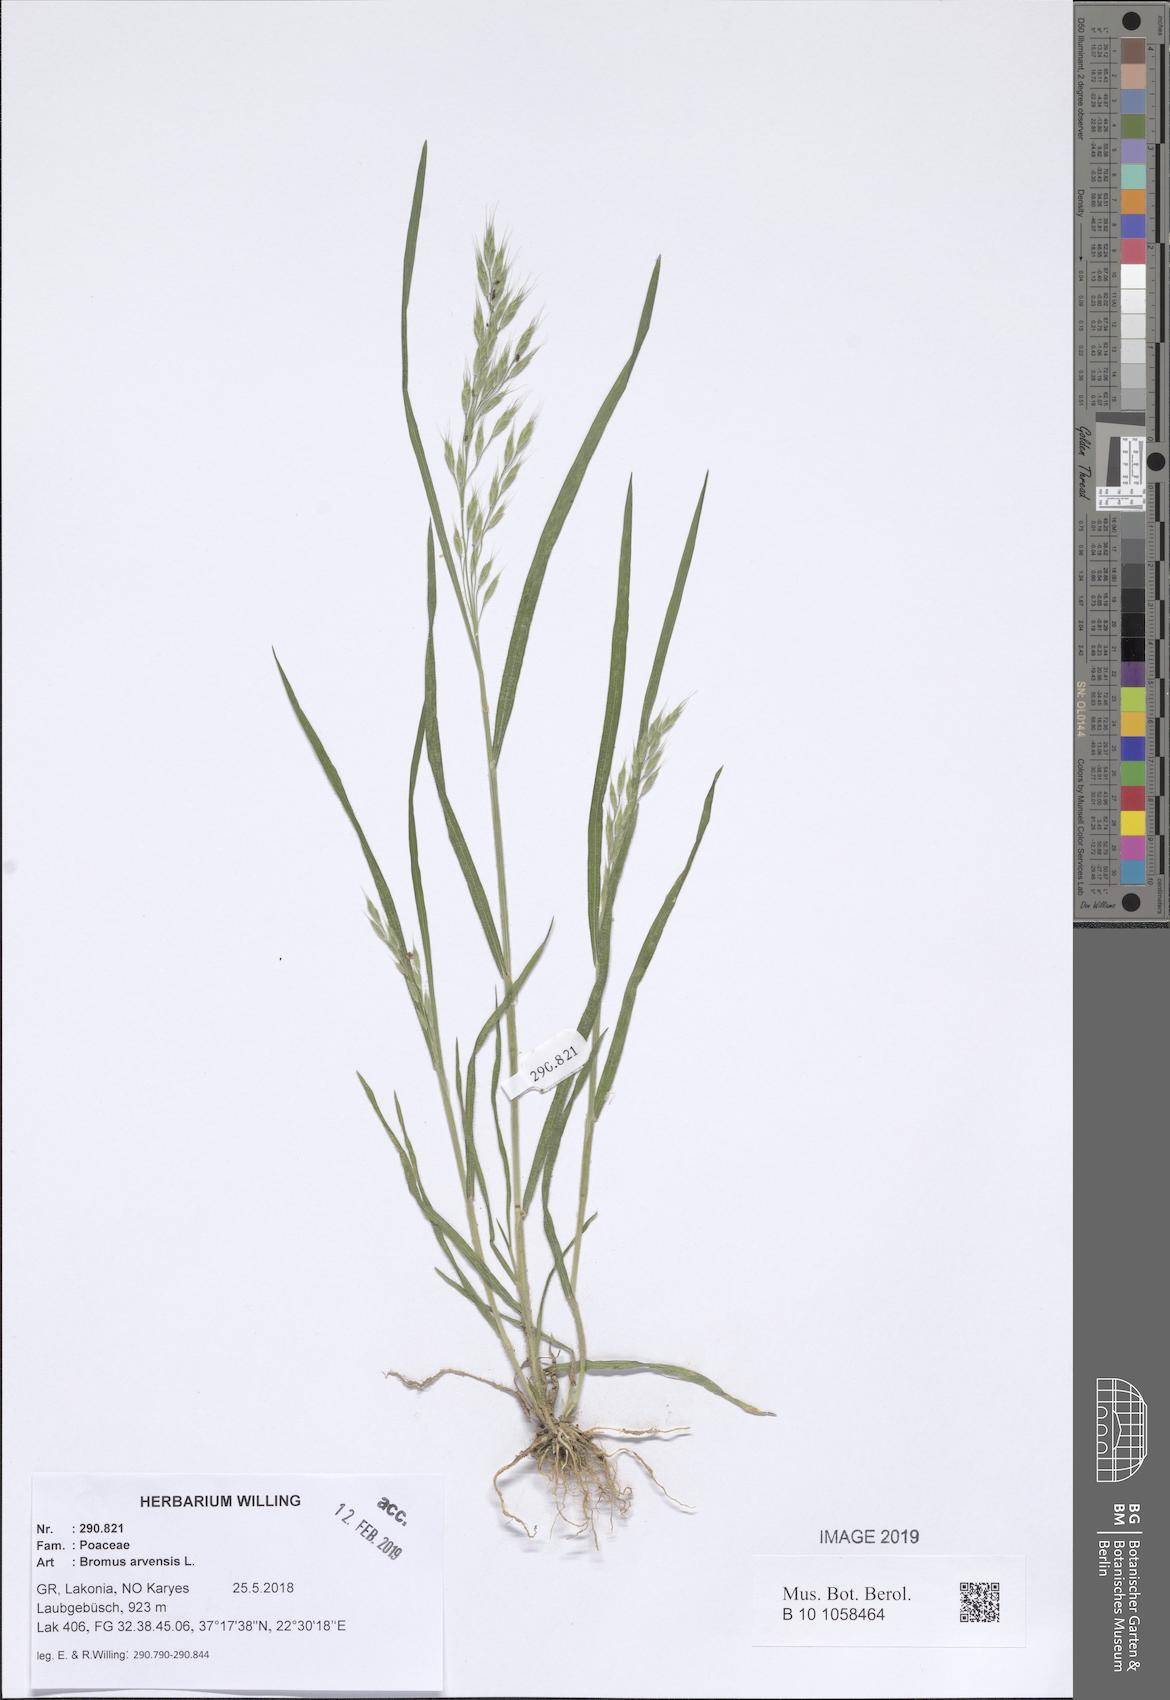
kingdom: Plantae
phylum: Tracheophyta
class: Liliopsida
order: Poales
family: Poaceae
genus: Bromus
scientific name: Bromus arvensis
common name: Field brome
